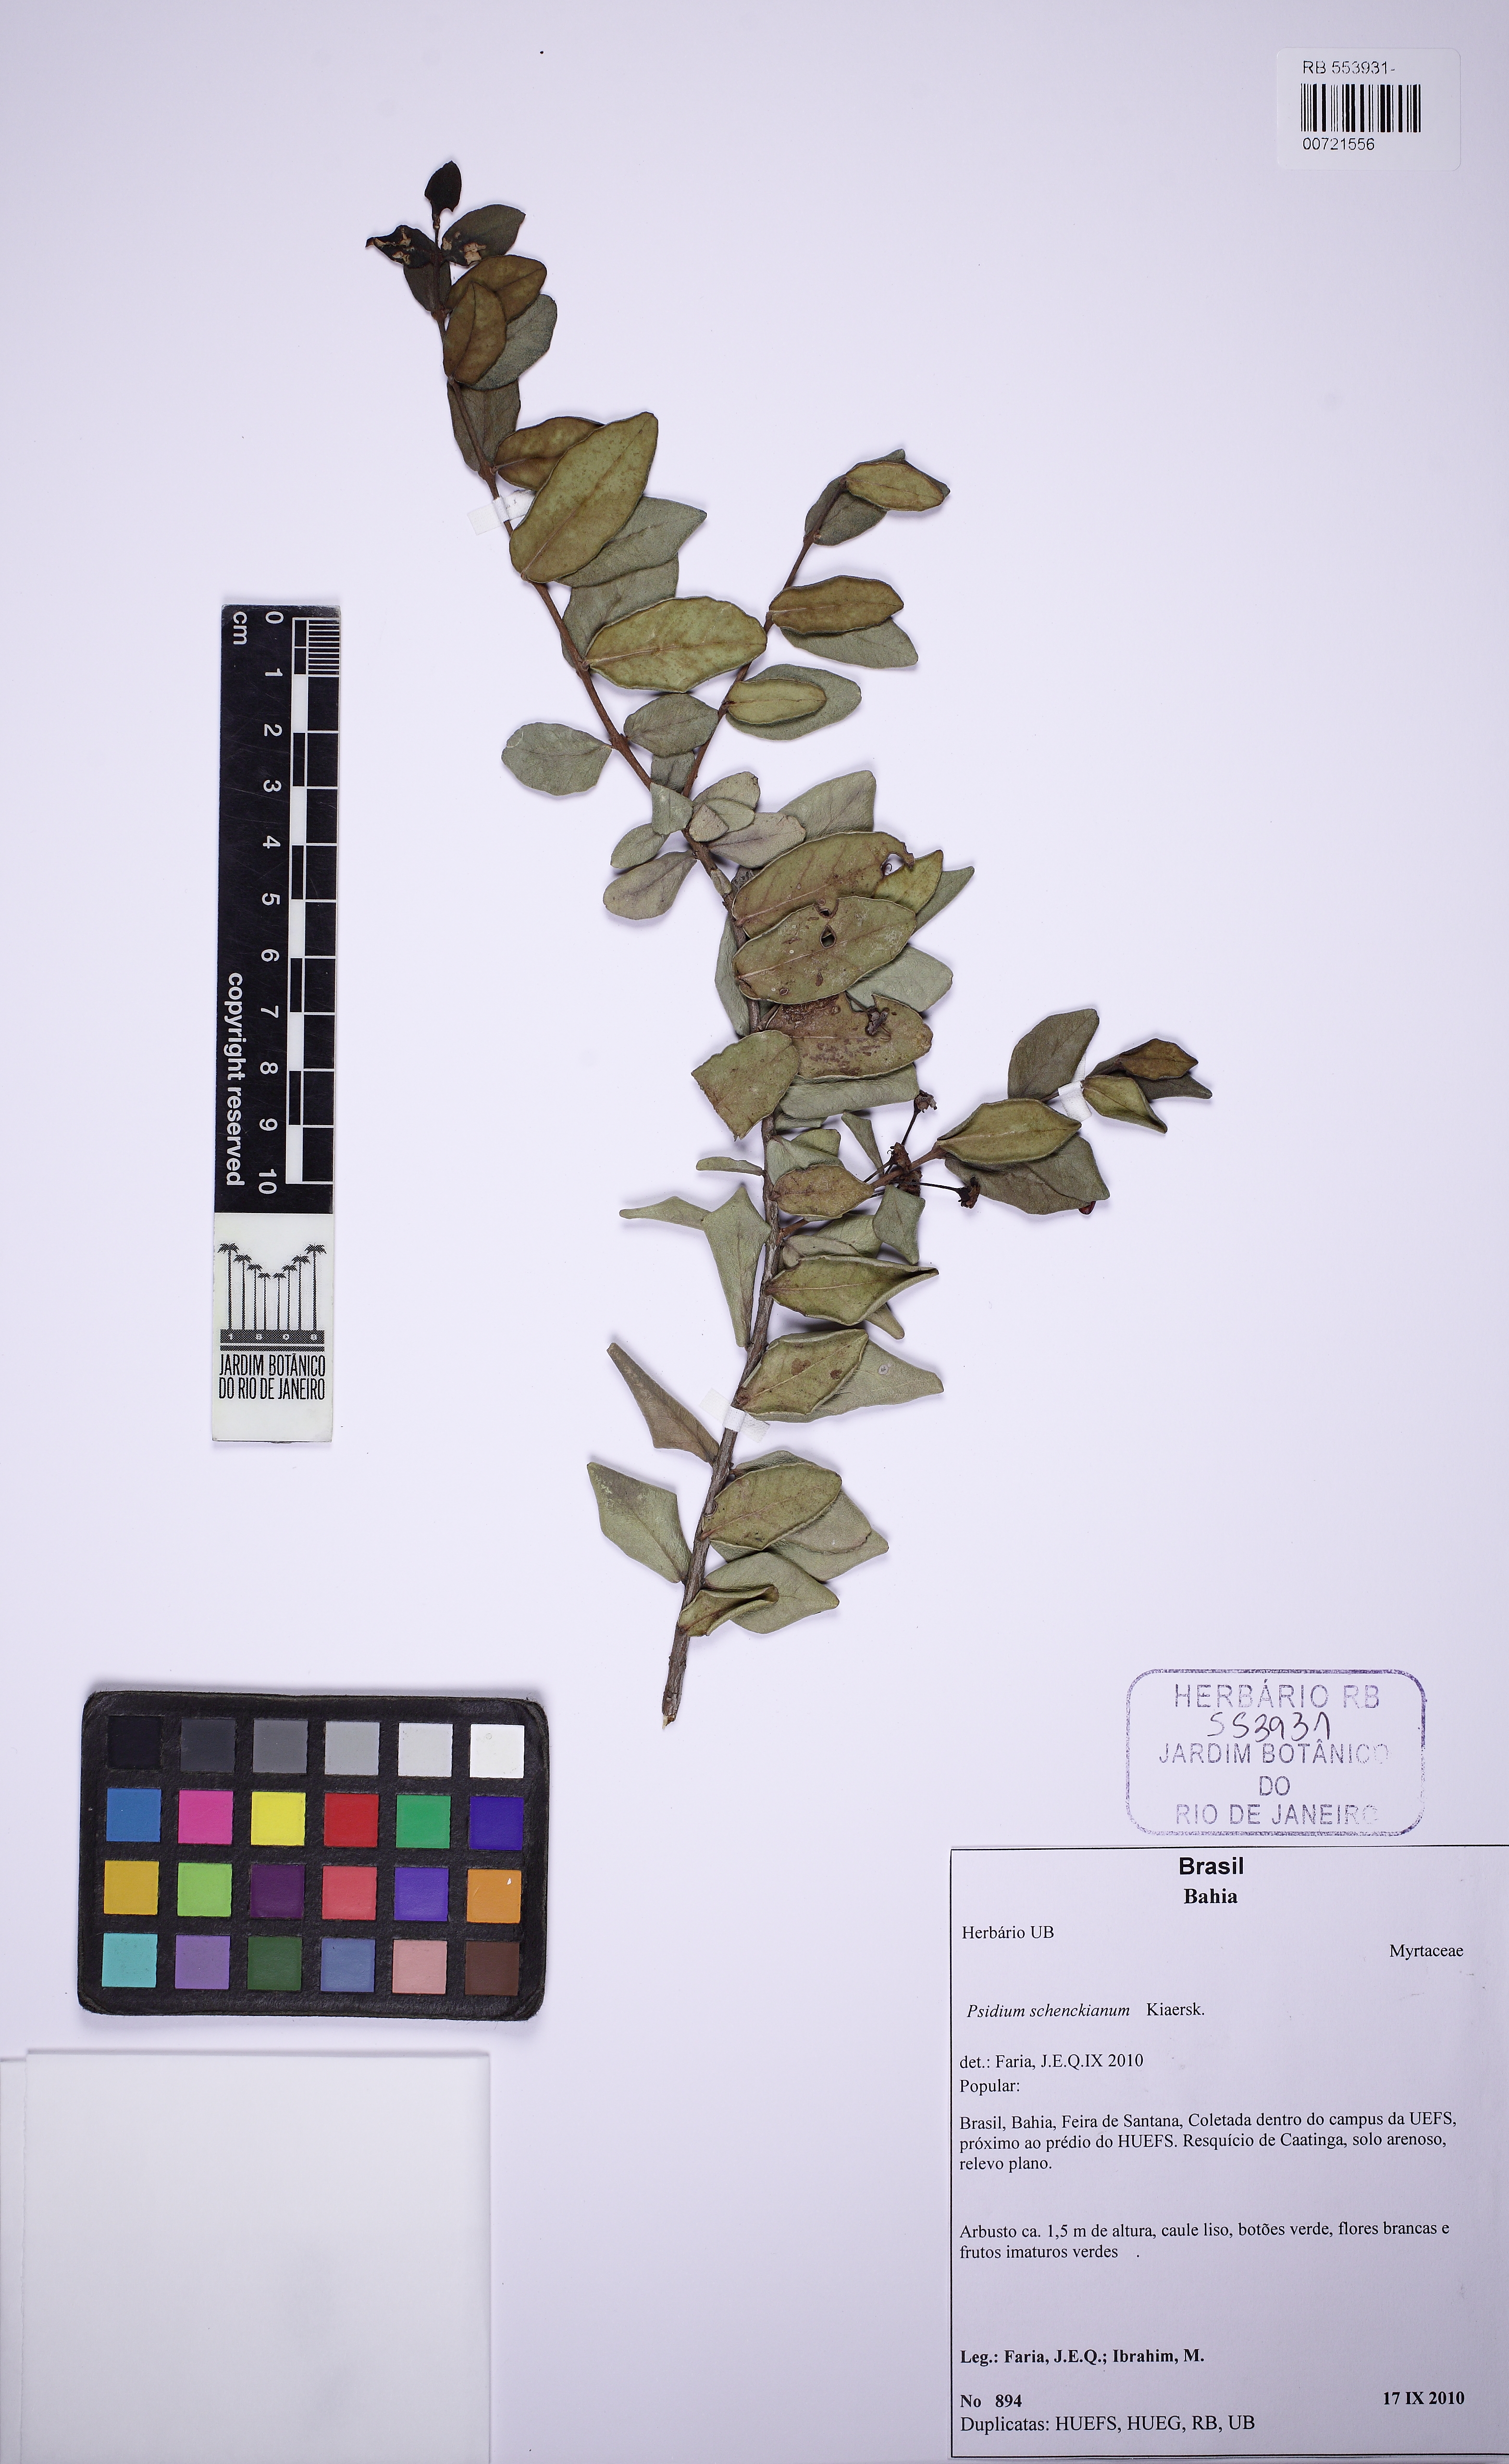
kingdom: Plantae
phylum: Tracheophyta
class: Magnoliopsida
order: Myrtales
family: Myrtaceae
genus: Psidium
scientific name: Psidium schenckianum
